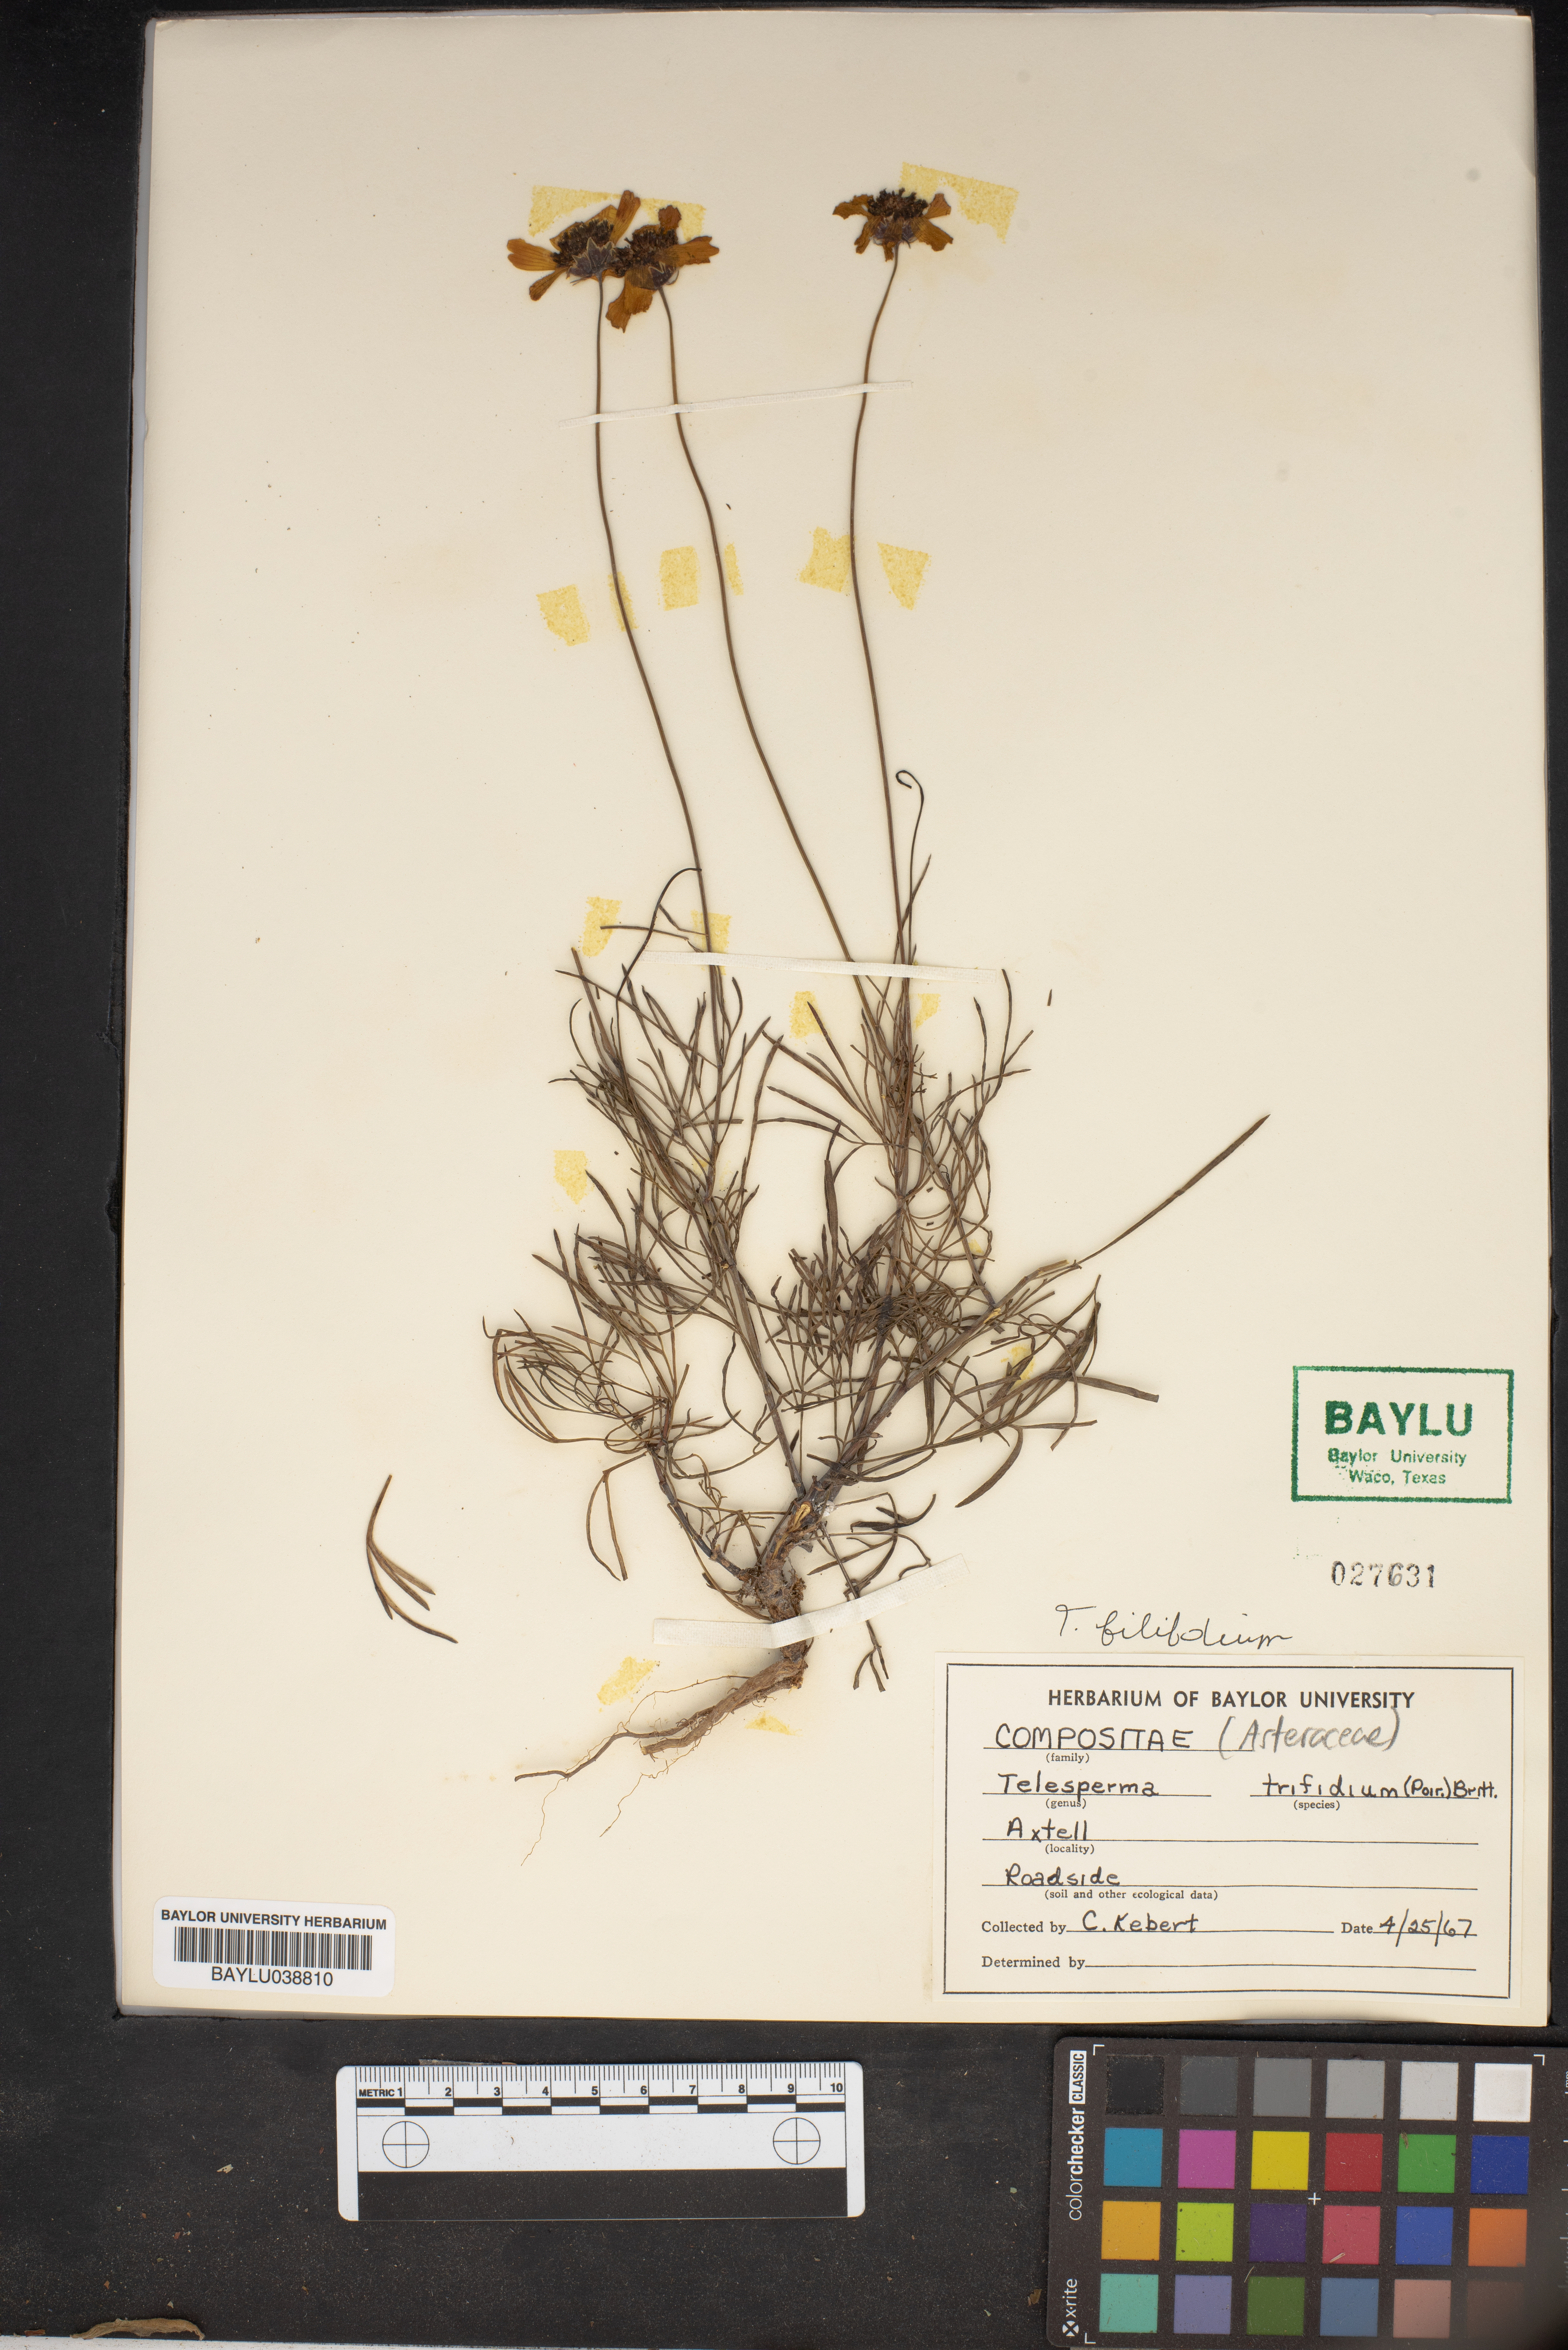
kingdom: Plantae
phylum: Tracheophyta
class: Magnoliopsida
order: Asterales
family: Asteraceae
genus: Thelesperma
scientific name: Thelesperma filifolium
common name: Stiff greenthread
